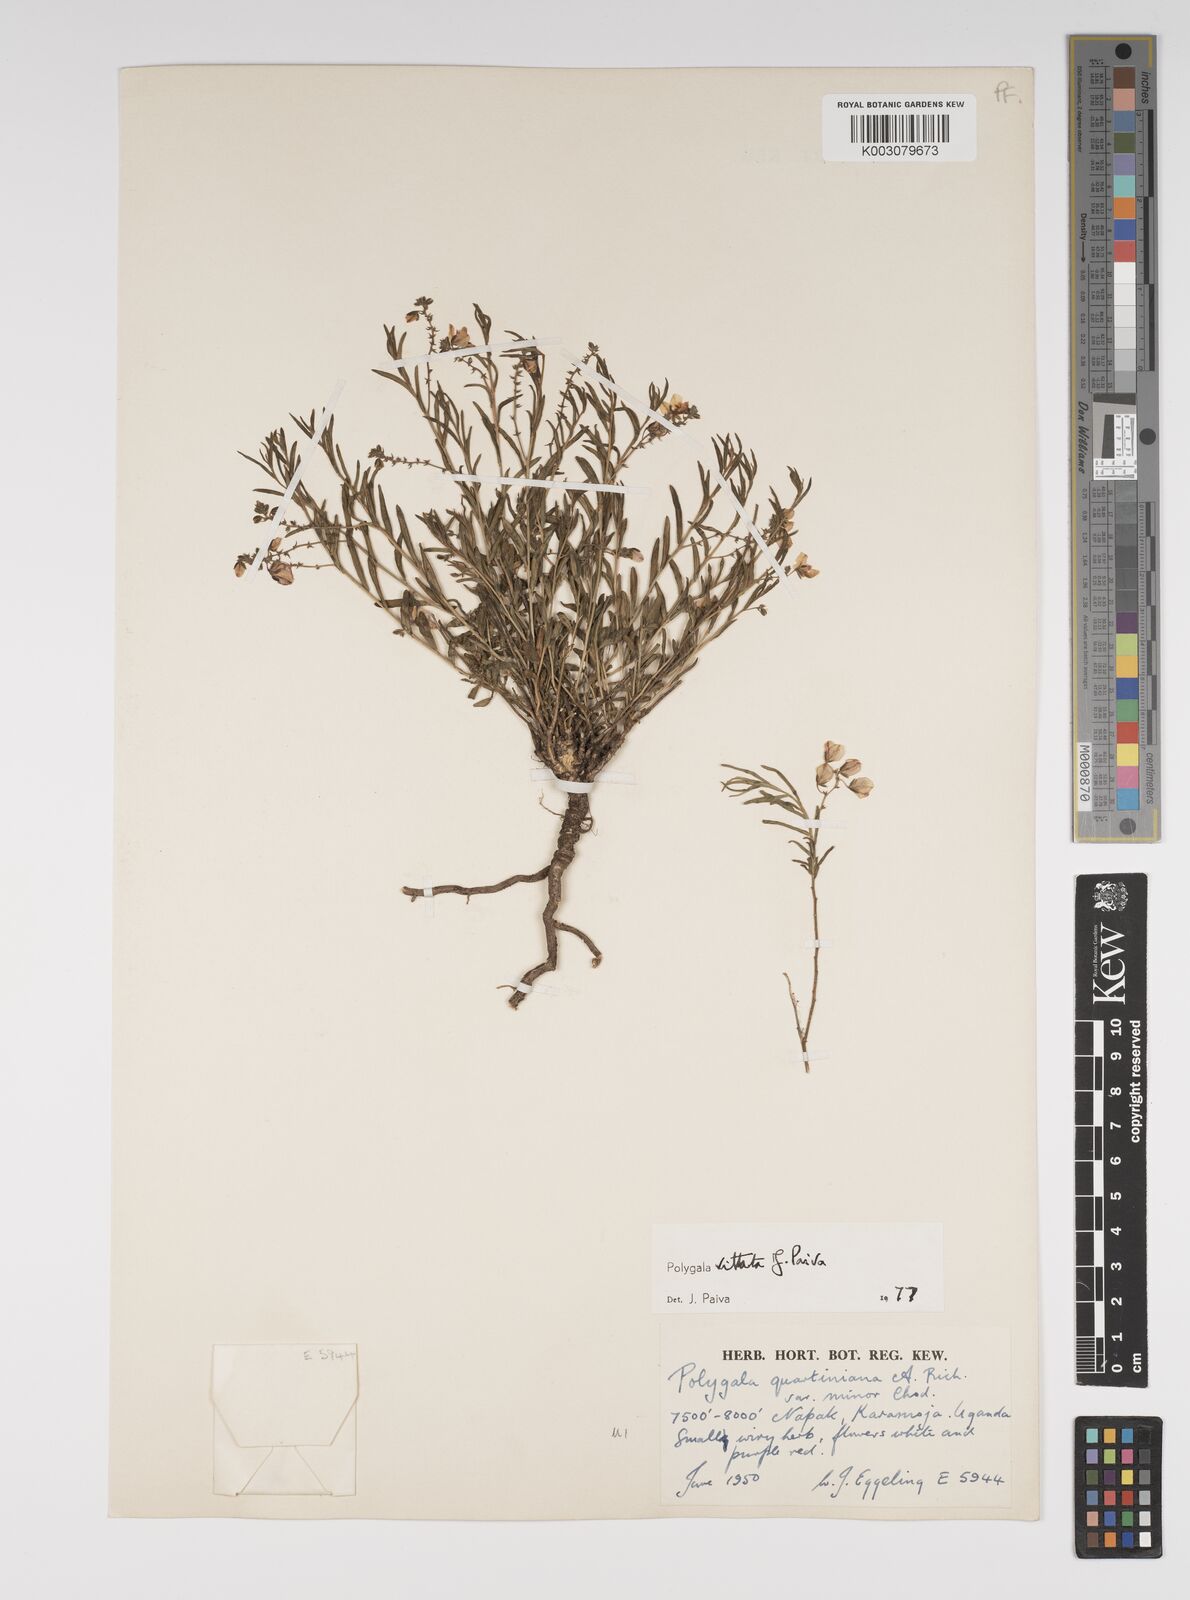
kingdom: Plantae
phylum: Tracheophyta
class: Magnoliopsida
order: Fabales
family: Polygalaceae
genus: Polygala
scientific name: Polygala vittata
